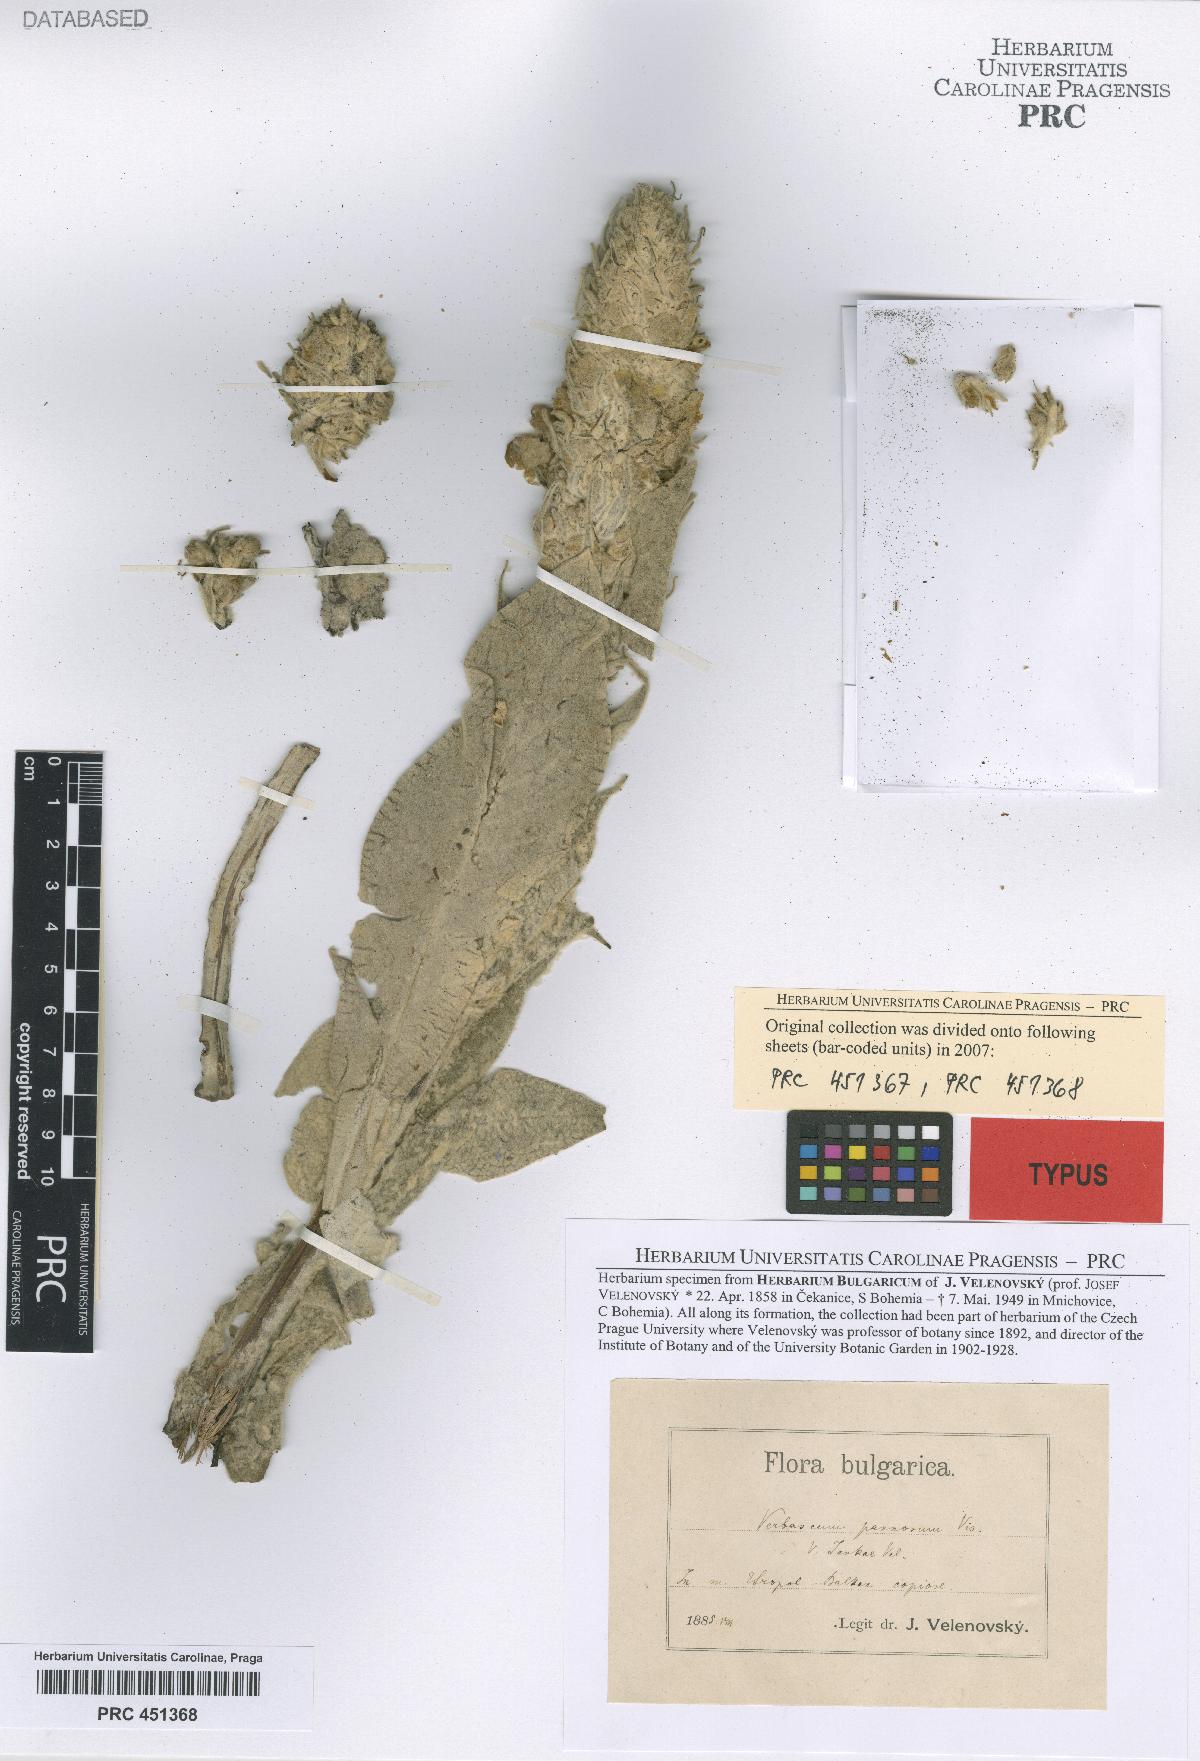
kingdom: Plantae
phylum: Tracheophyta
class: Magnoliopsida
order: Lamiales
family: Scrophulariaceae
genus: Verbascum
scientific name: Verbascum jankae
